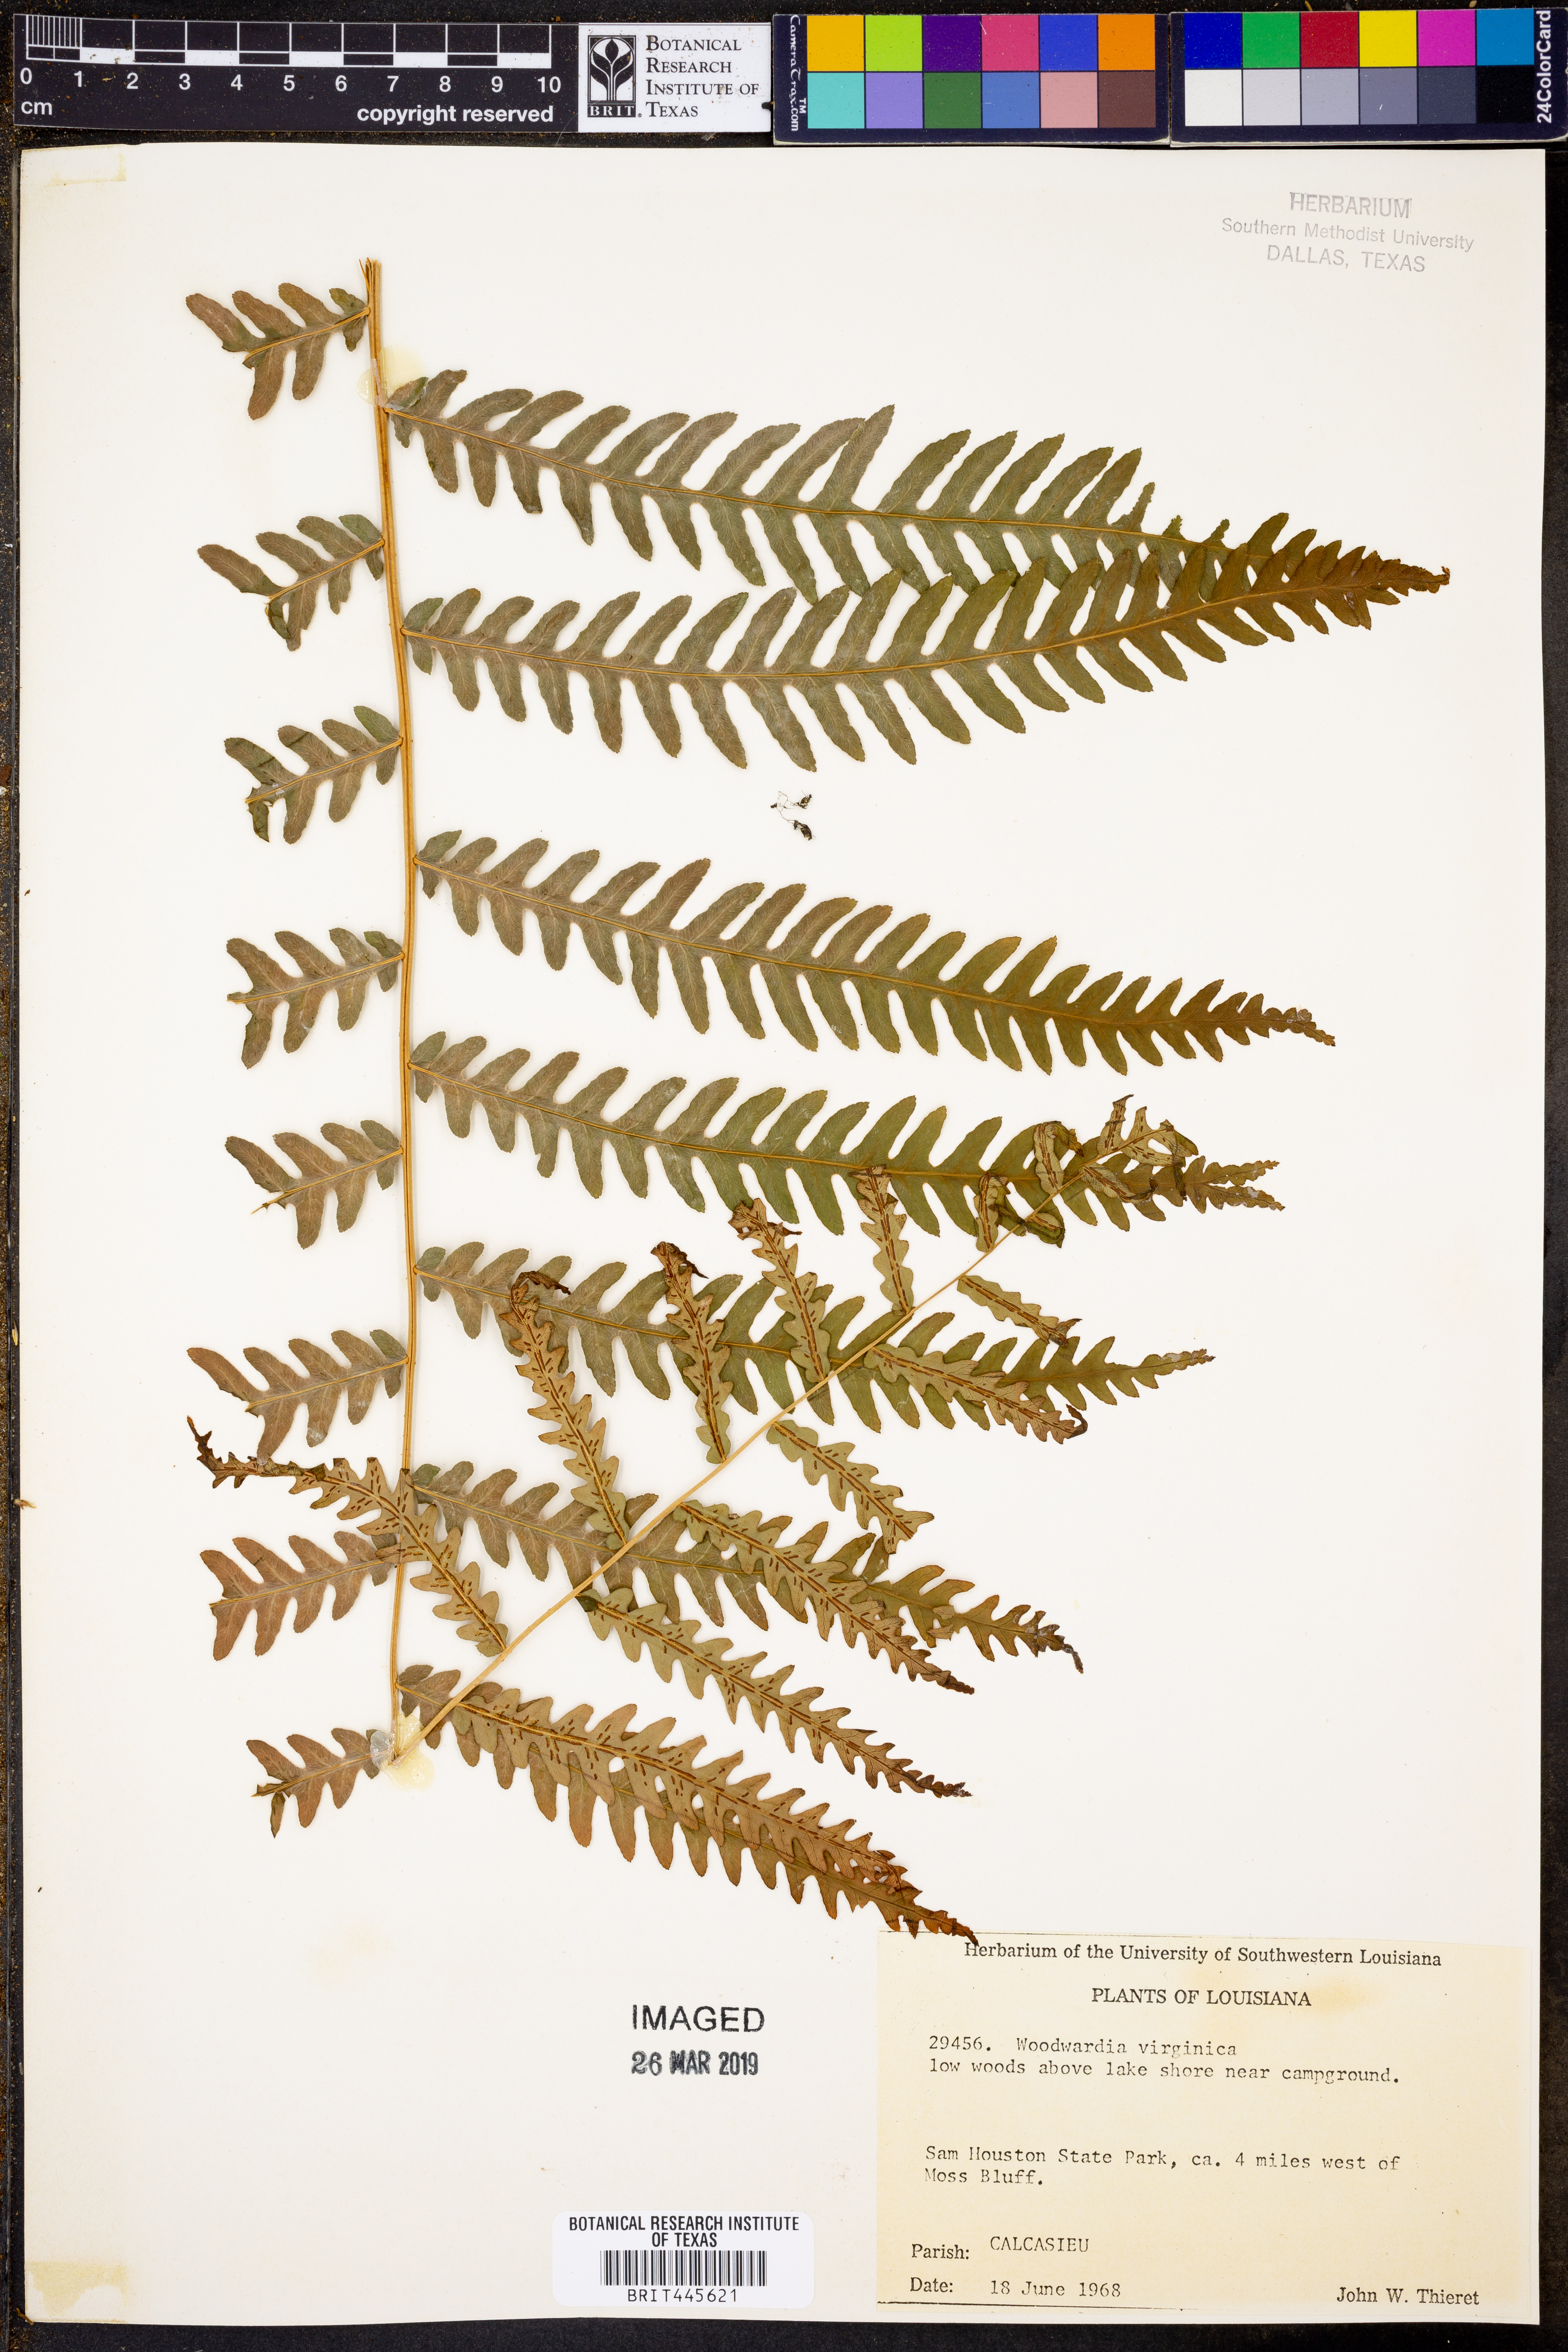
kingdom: Plantae
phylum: Tracheophyta
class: Polypodiopsida
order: Polypodiales
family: Blechnaceae
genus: Anchistea
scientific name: Anchistea virginica
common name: Virginia chain fern
